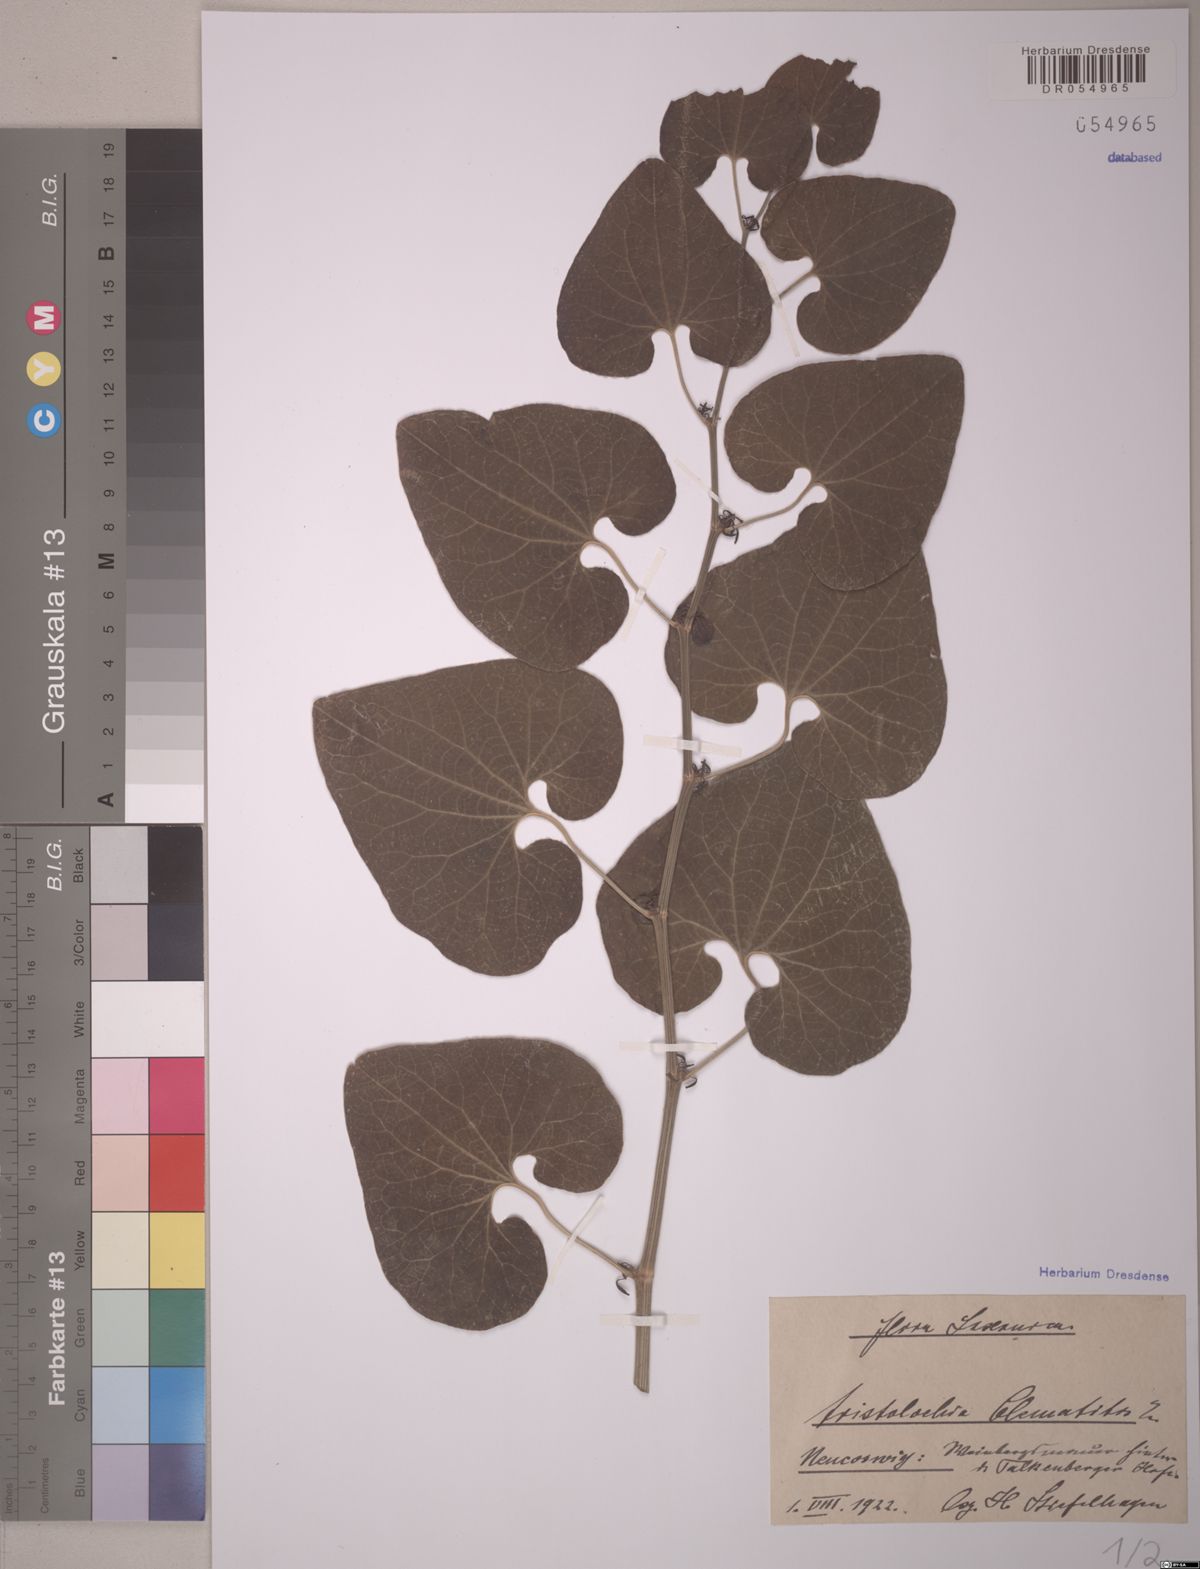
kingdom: Plantae
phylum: Tracheophyta
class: Magnoliopsida
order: Piperales
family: Aristolochiaceae
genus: Aristolochia
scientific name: Aristolochia clematitis
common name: Birthwort
